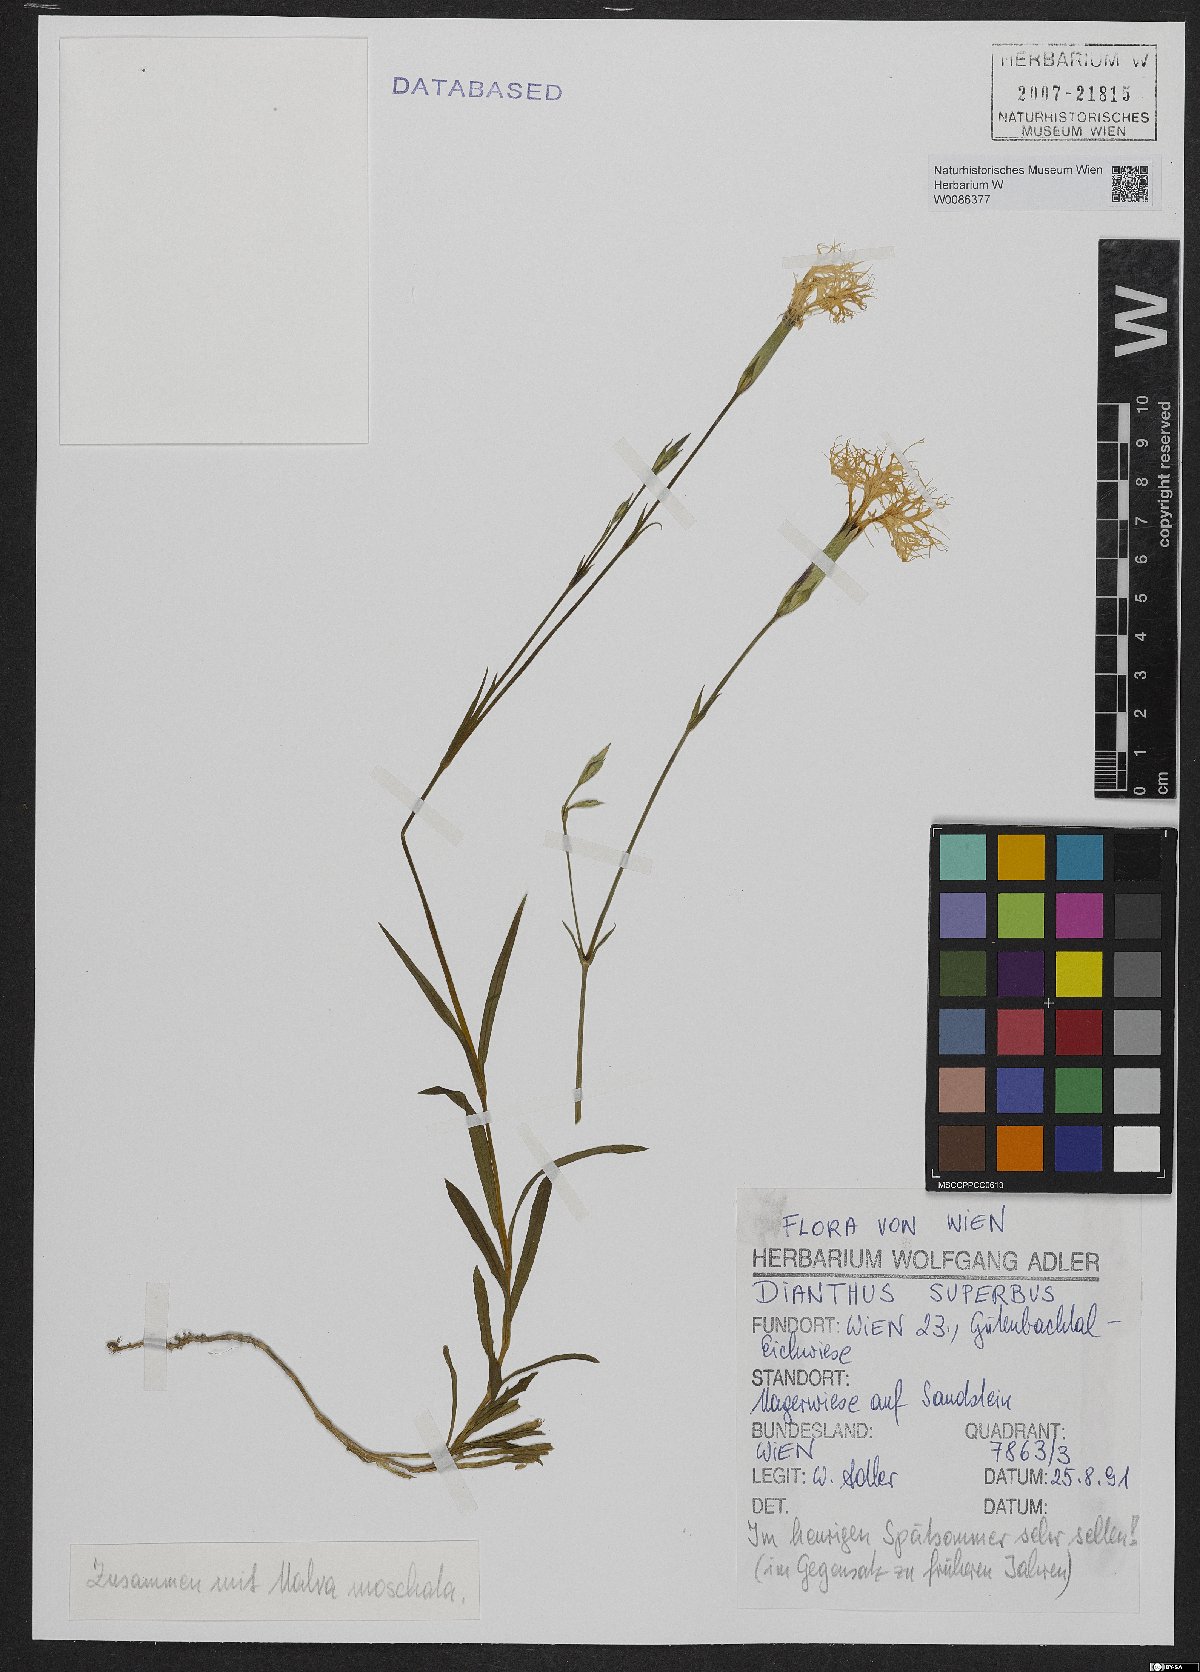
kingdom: Plantae
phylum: Tracheophyta
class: Magnoliopsida
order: Caryophyllales
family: Caryophyllaceae
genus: Dianthus
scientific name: Dianthus superbus
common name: Fringed pink
